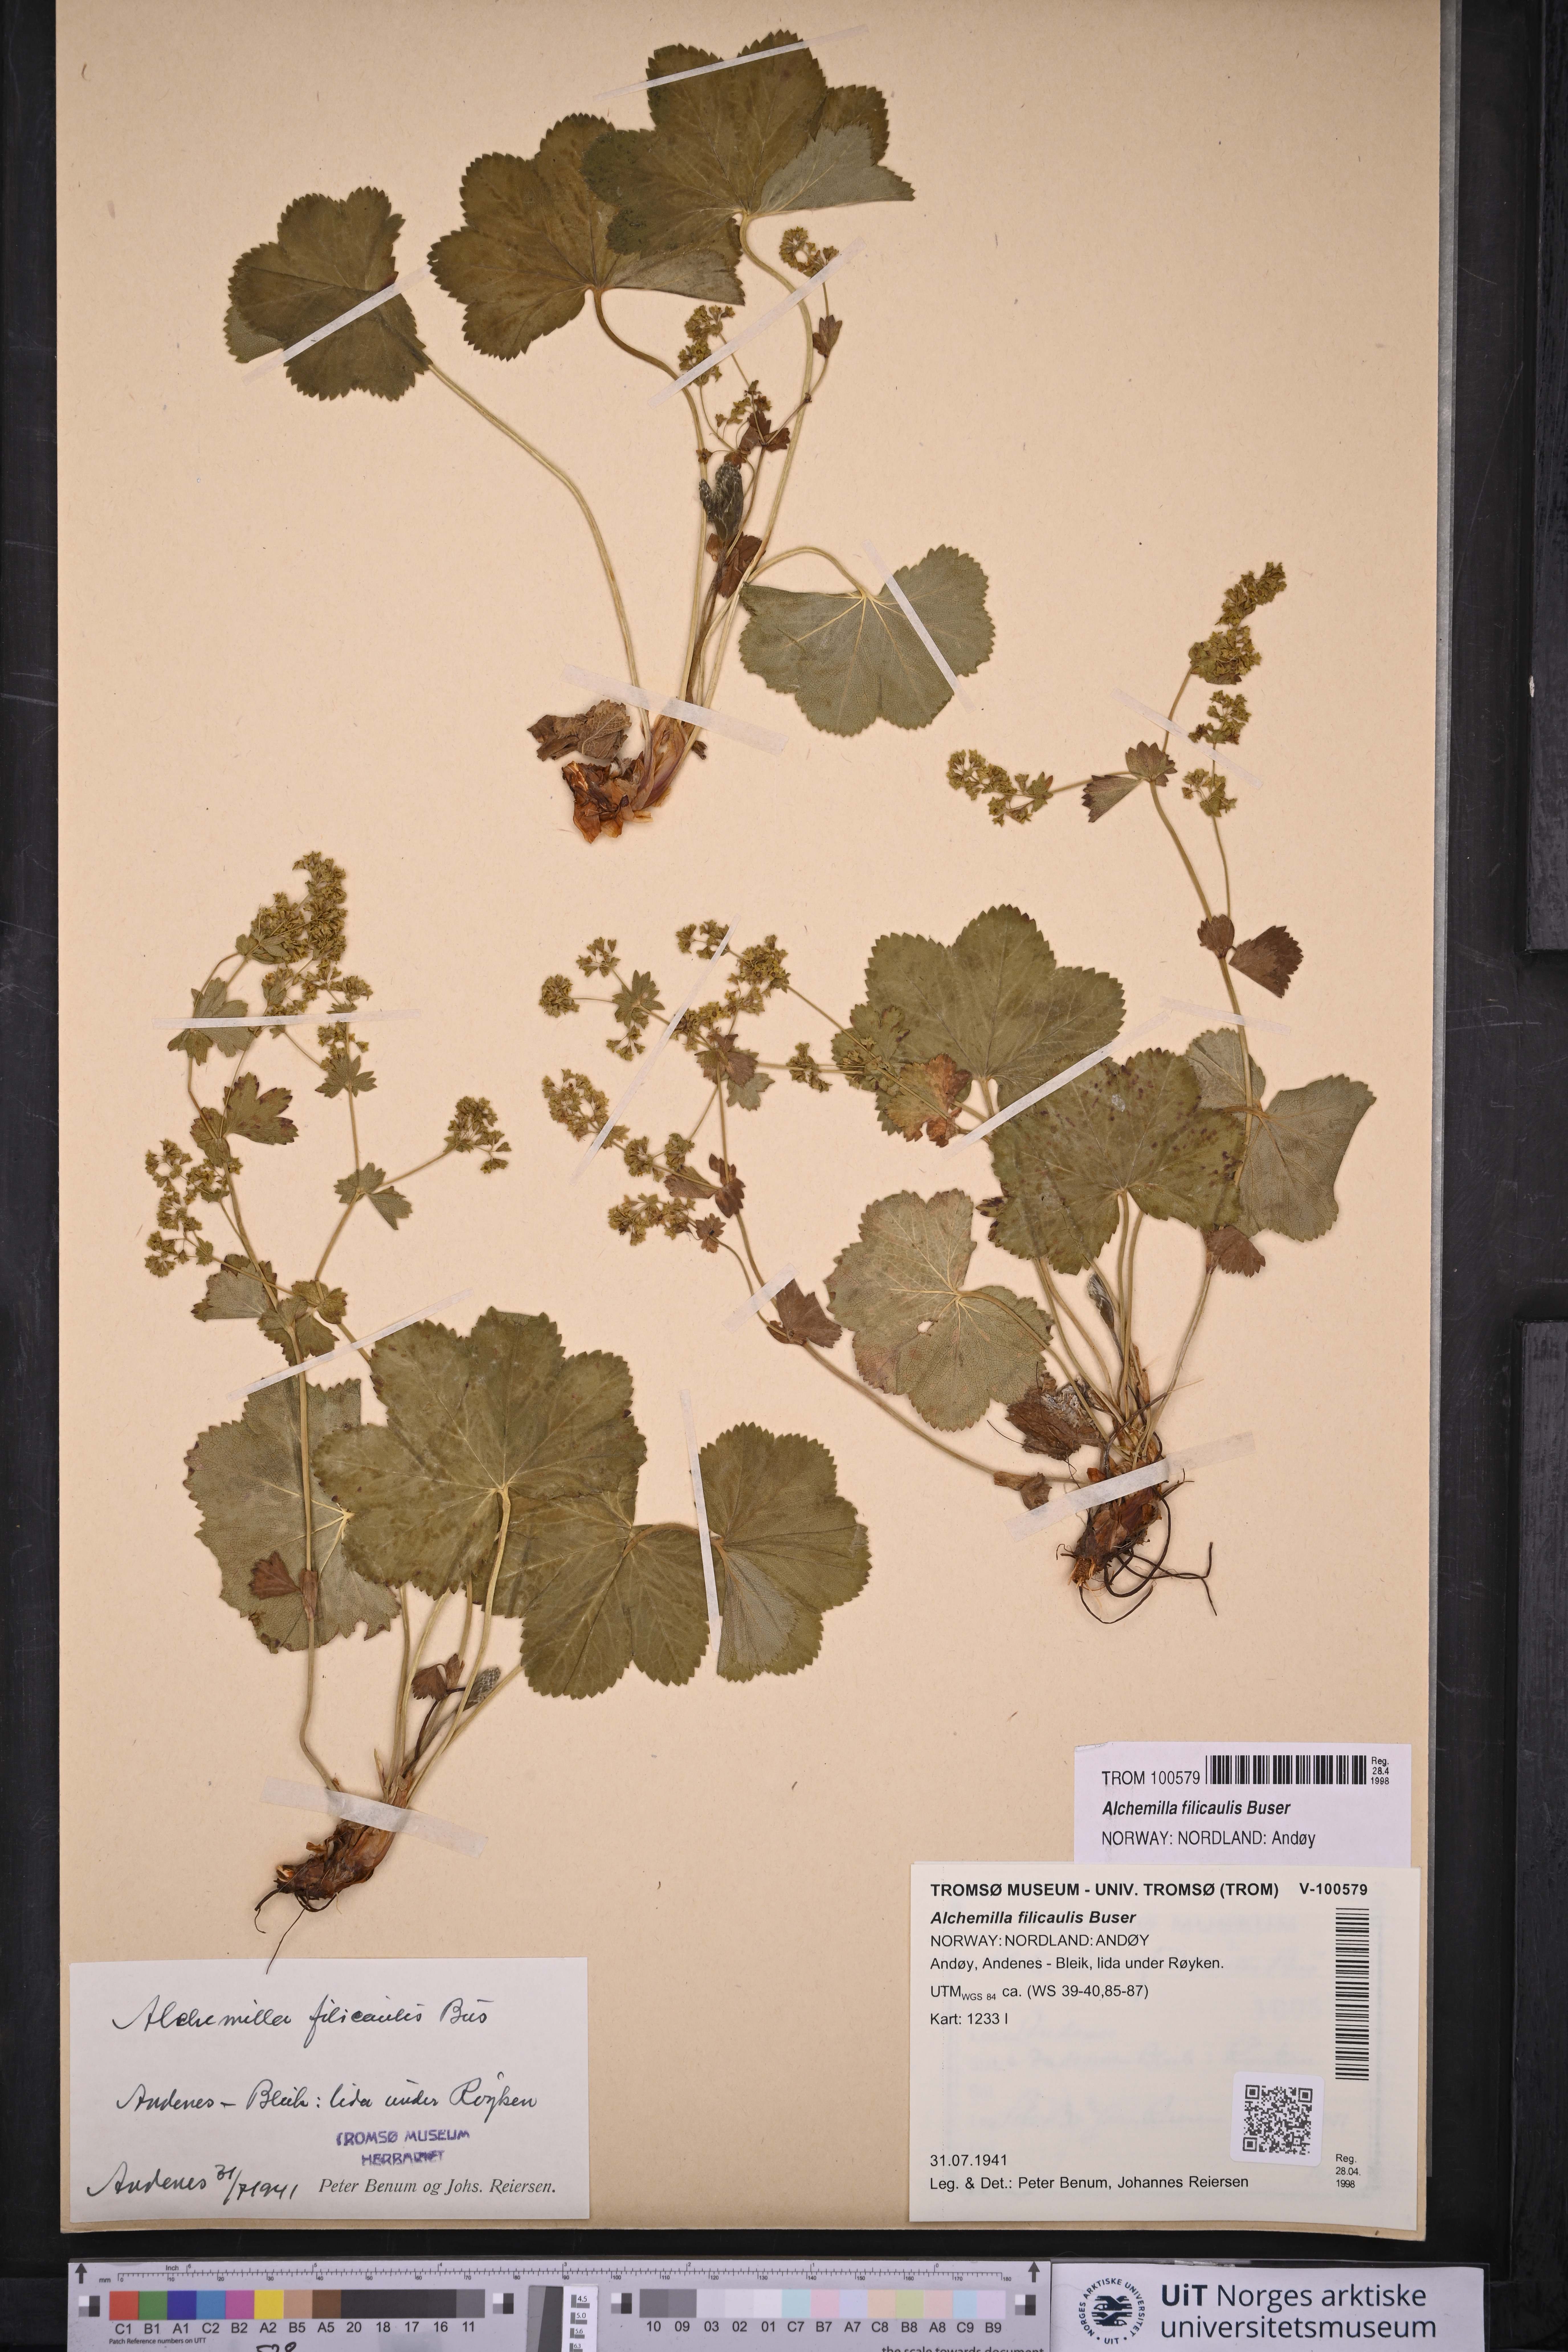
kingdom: Plantae
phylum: Tracheophyta
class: Magnoliopsida
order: Rosales
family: Rosaceae
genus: Alchemilla
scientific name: Alchemilla filicaulis
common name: Hairy lady's-mantle
